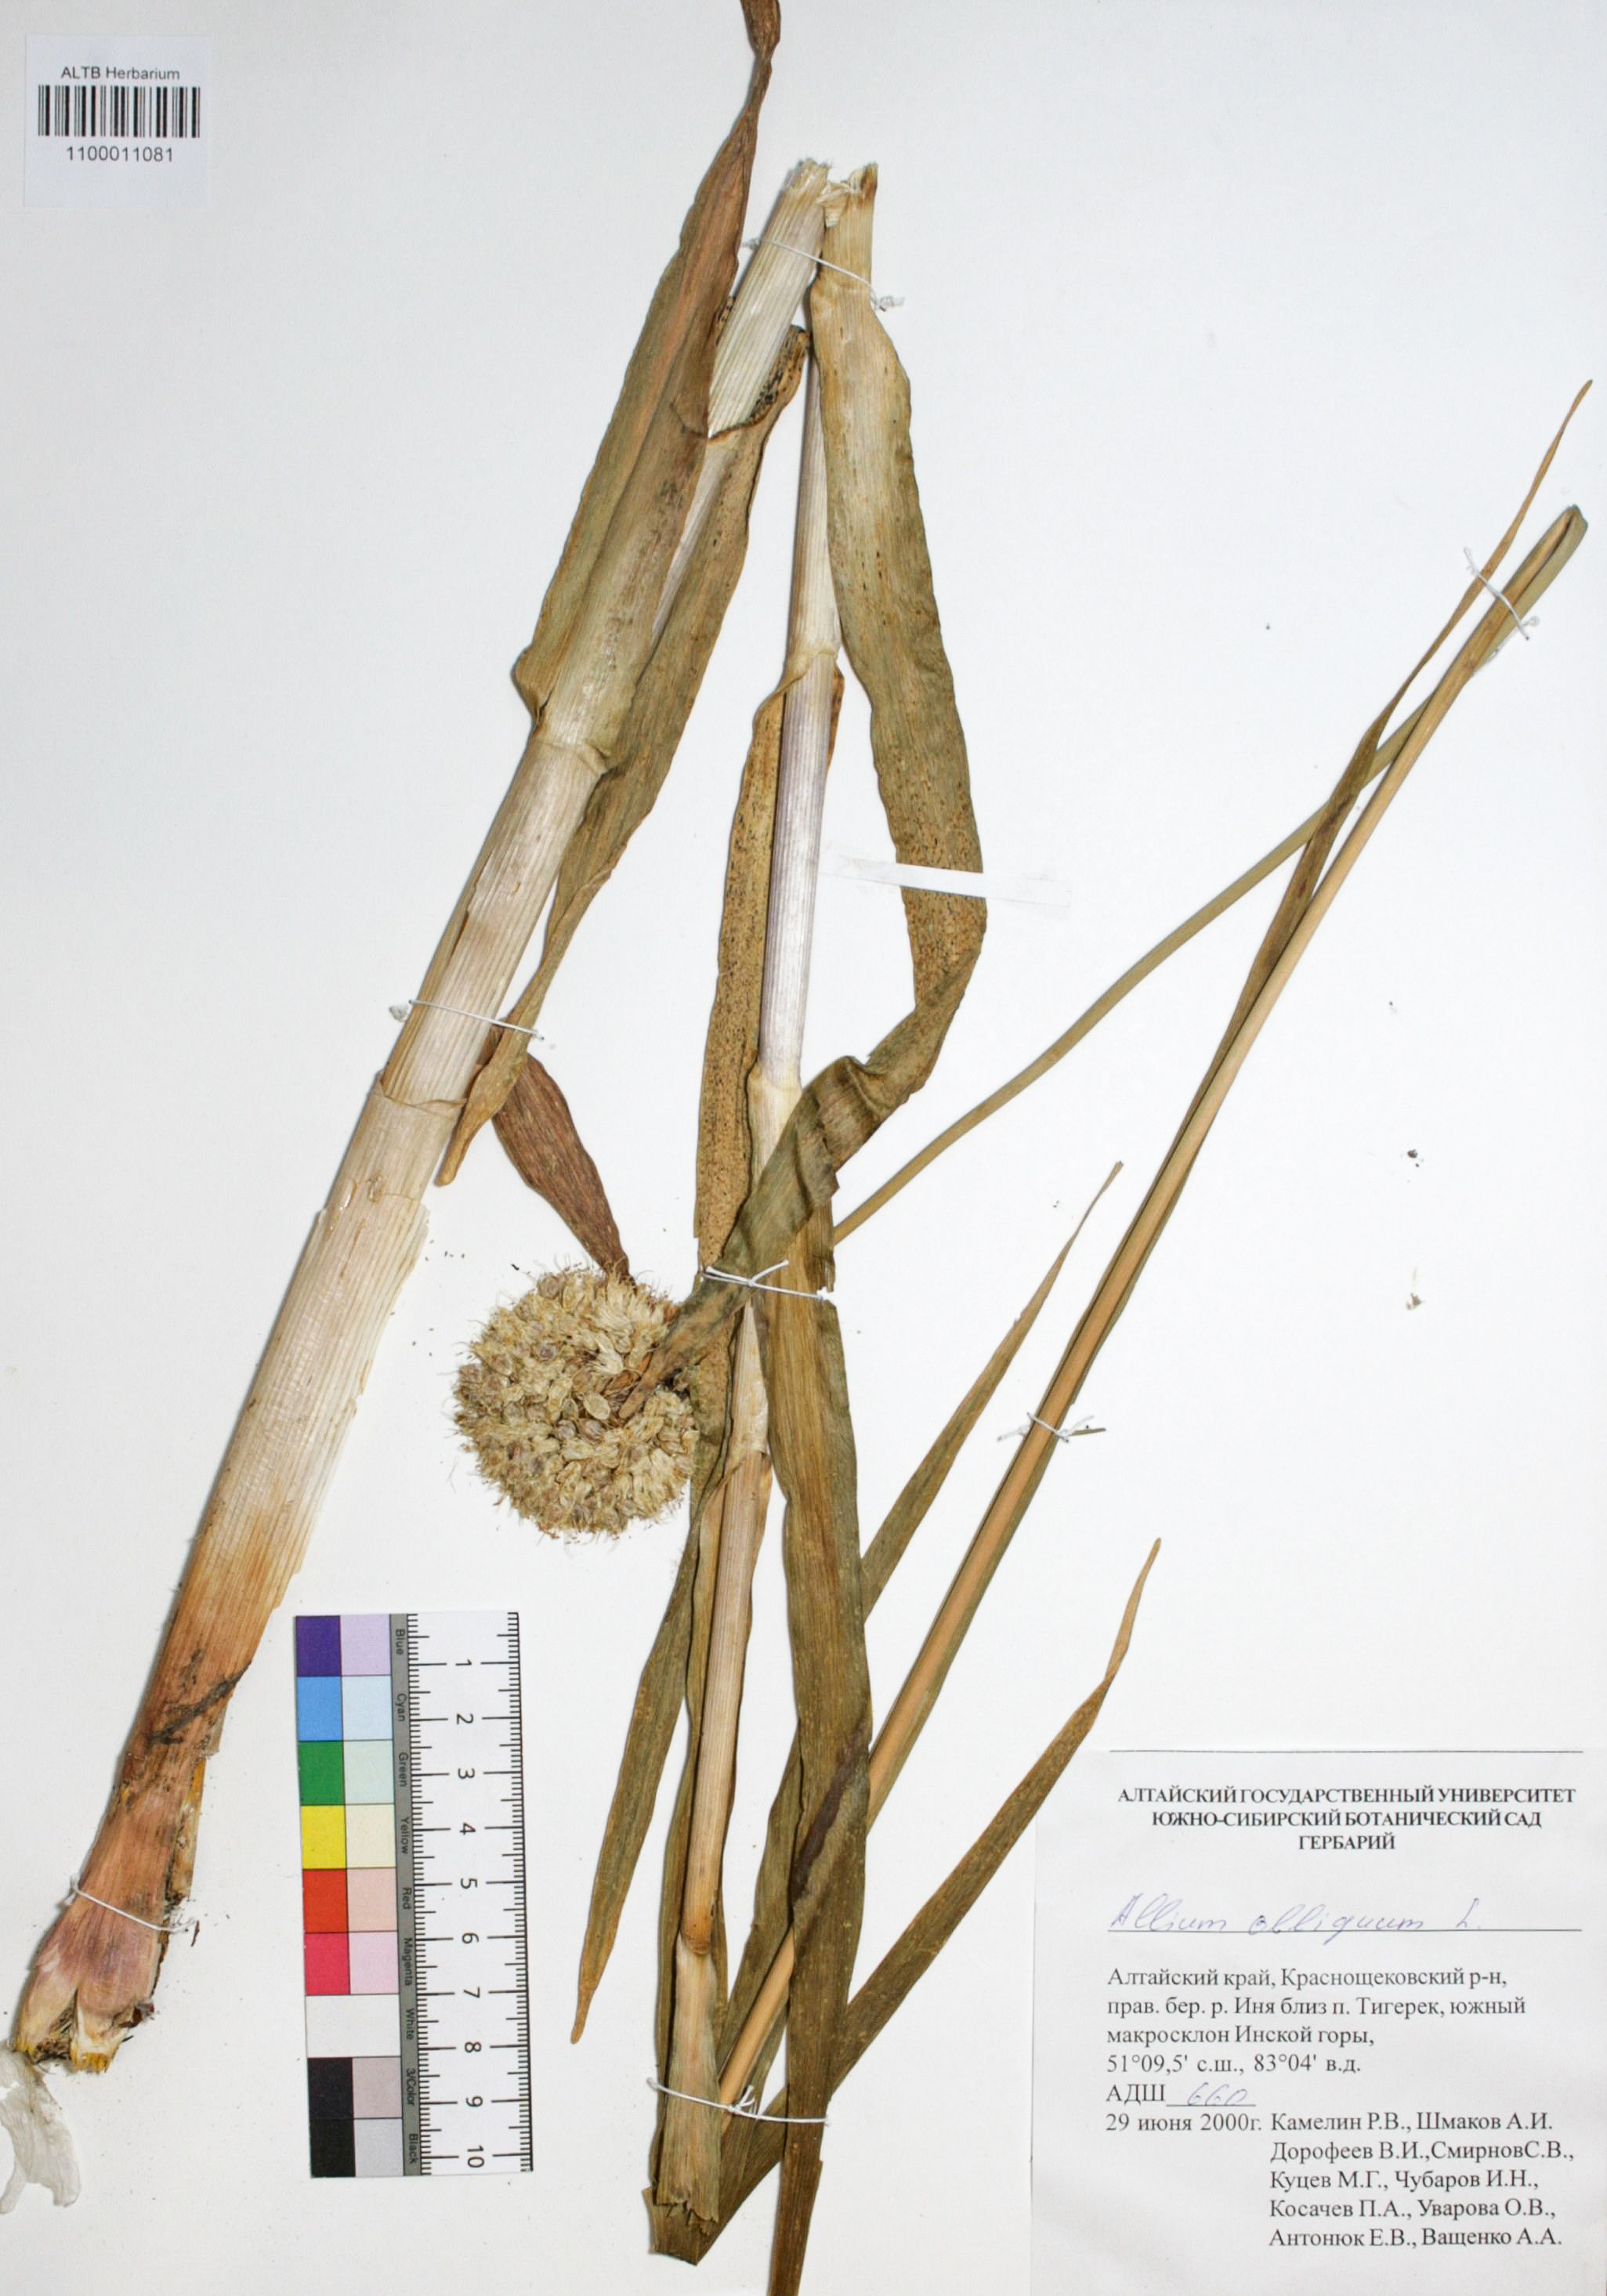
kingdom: Plantae
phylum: Tracheophyta
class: Liliopsida
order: Asparagales
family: Amaryllidaceae
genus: Allium
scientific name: Allium obliquum
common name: Oblique onion
